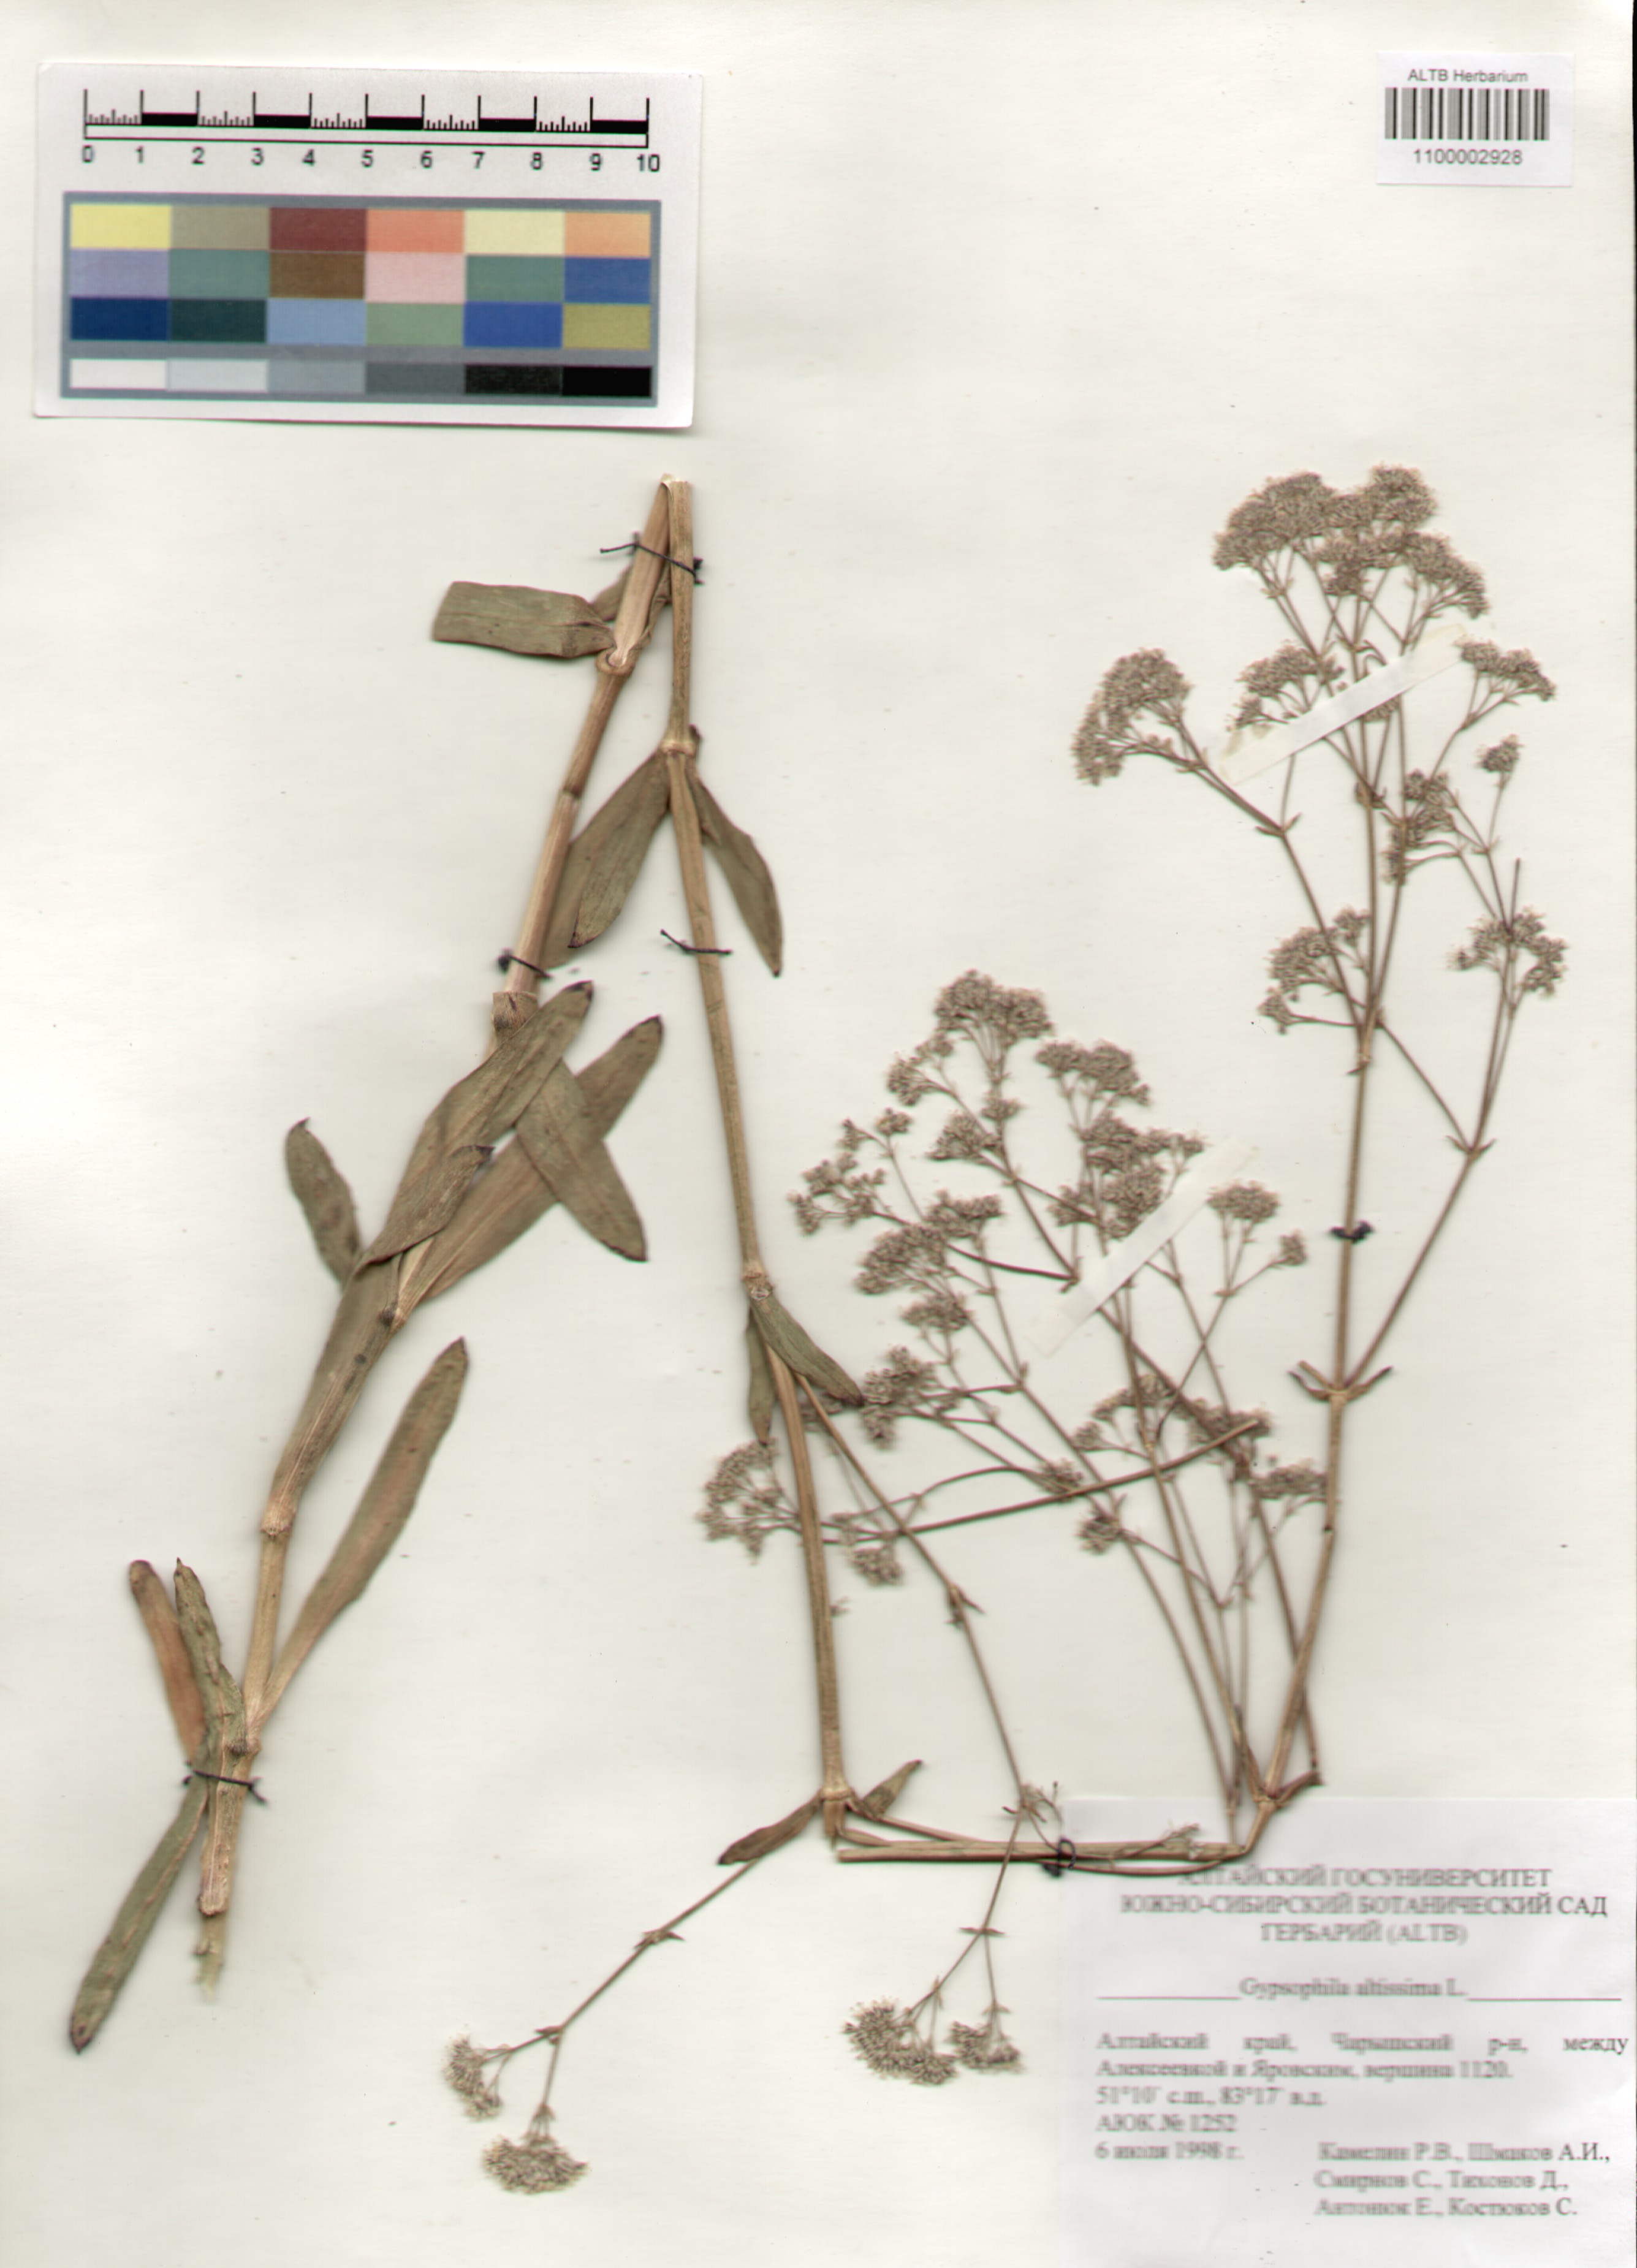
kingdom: Plantae
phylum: Tracheophyta
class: Magnoliopsida
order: Caryophyllales
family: Caryophyllaceae
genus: Gypsophila
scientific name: Gypsophila altissima
